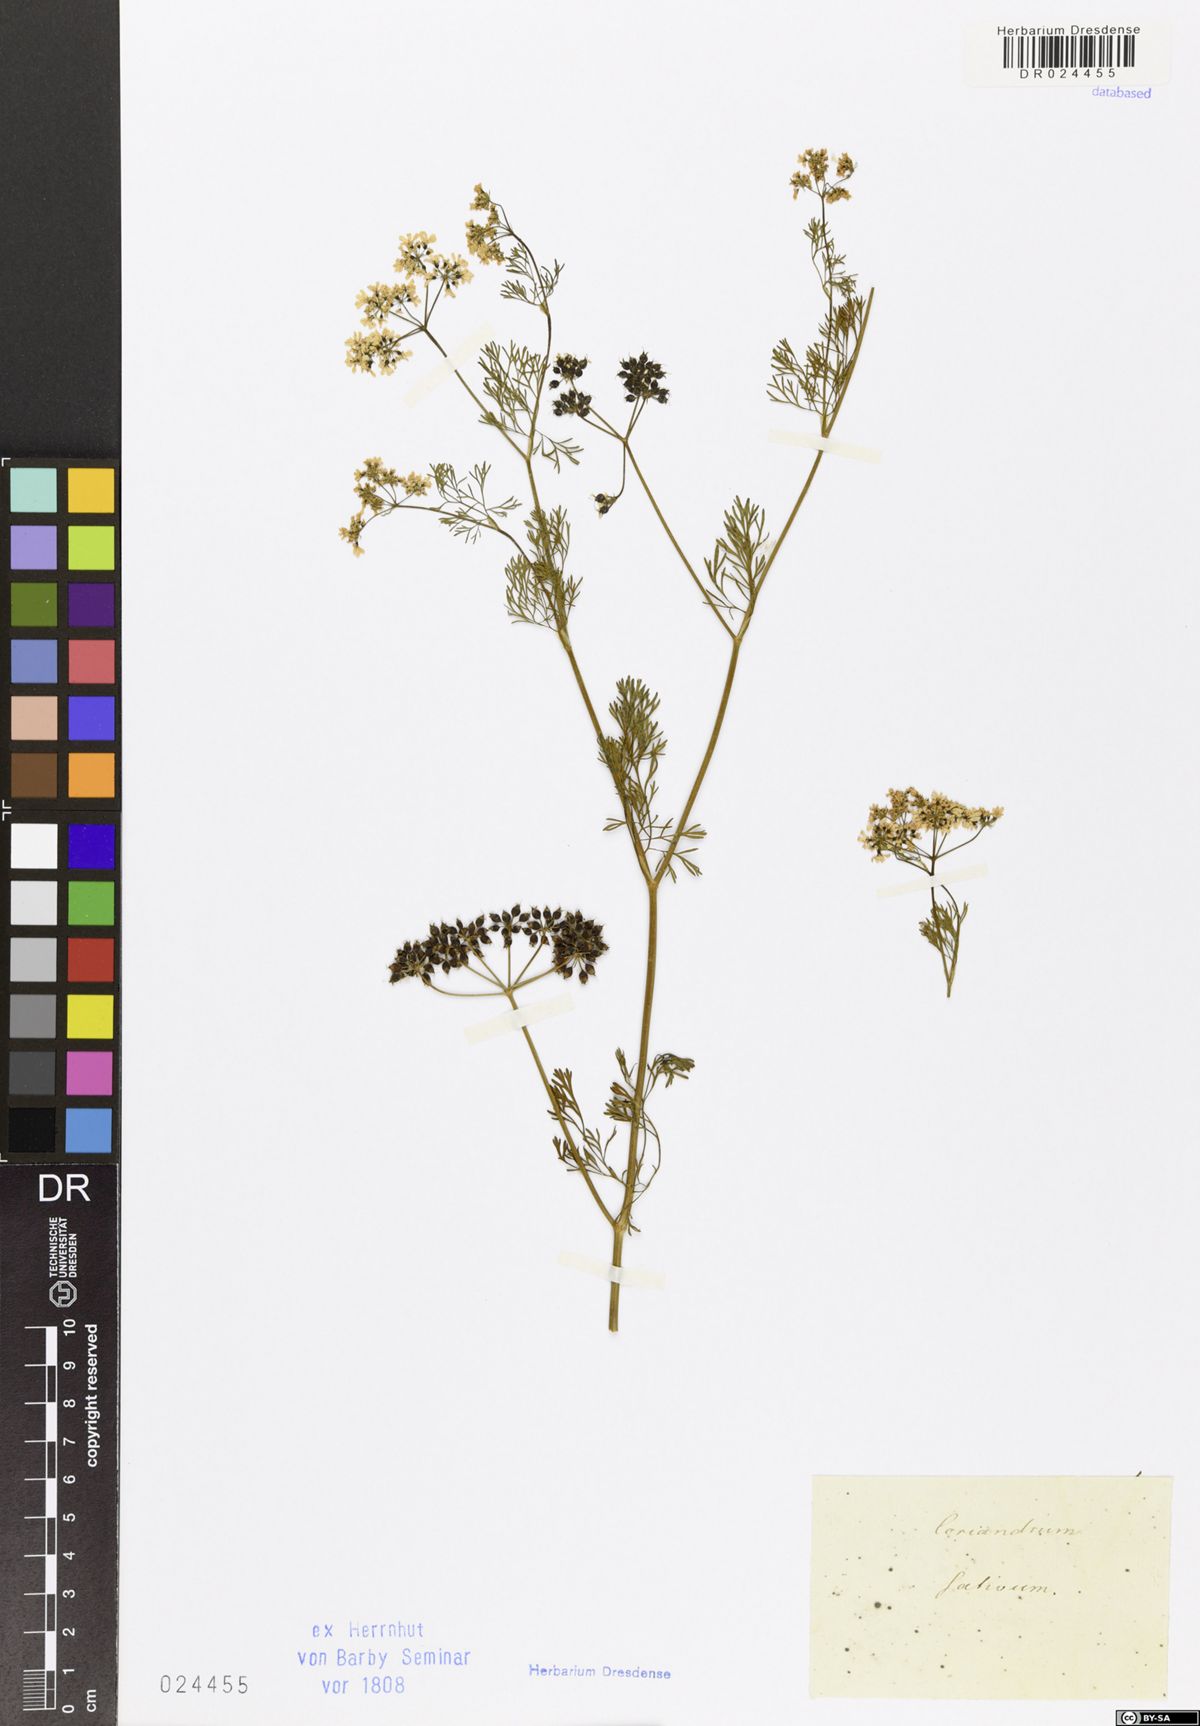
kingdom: Plantae
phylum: Tracheophyta
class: Magnoliopsida
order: Apiales
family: Apiaceae
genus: Coriandrum
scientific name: Coriandrum sativum
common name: Coriander
